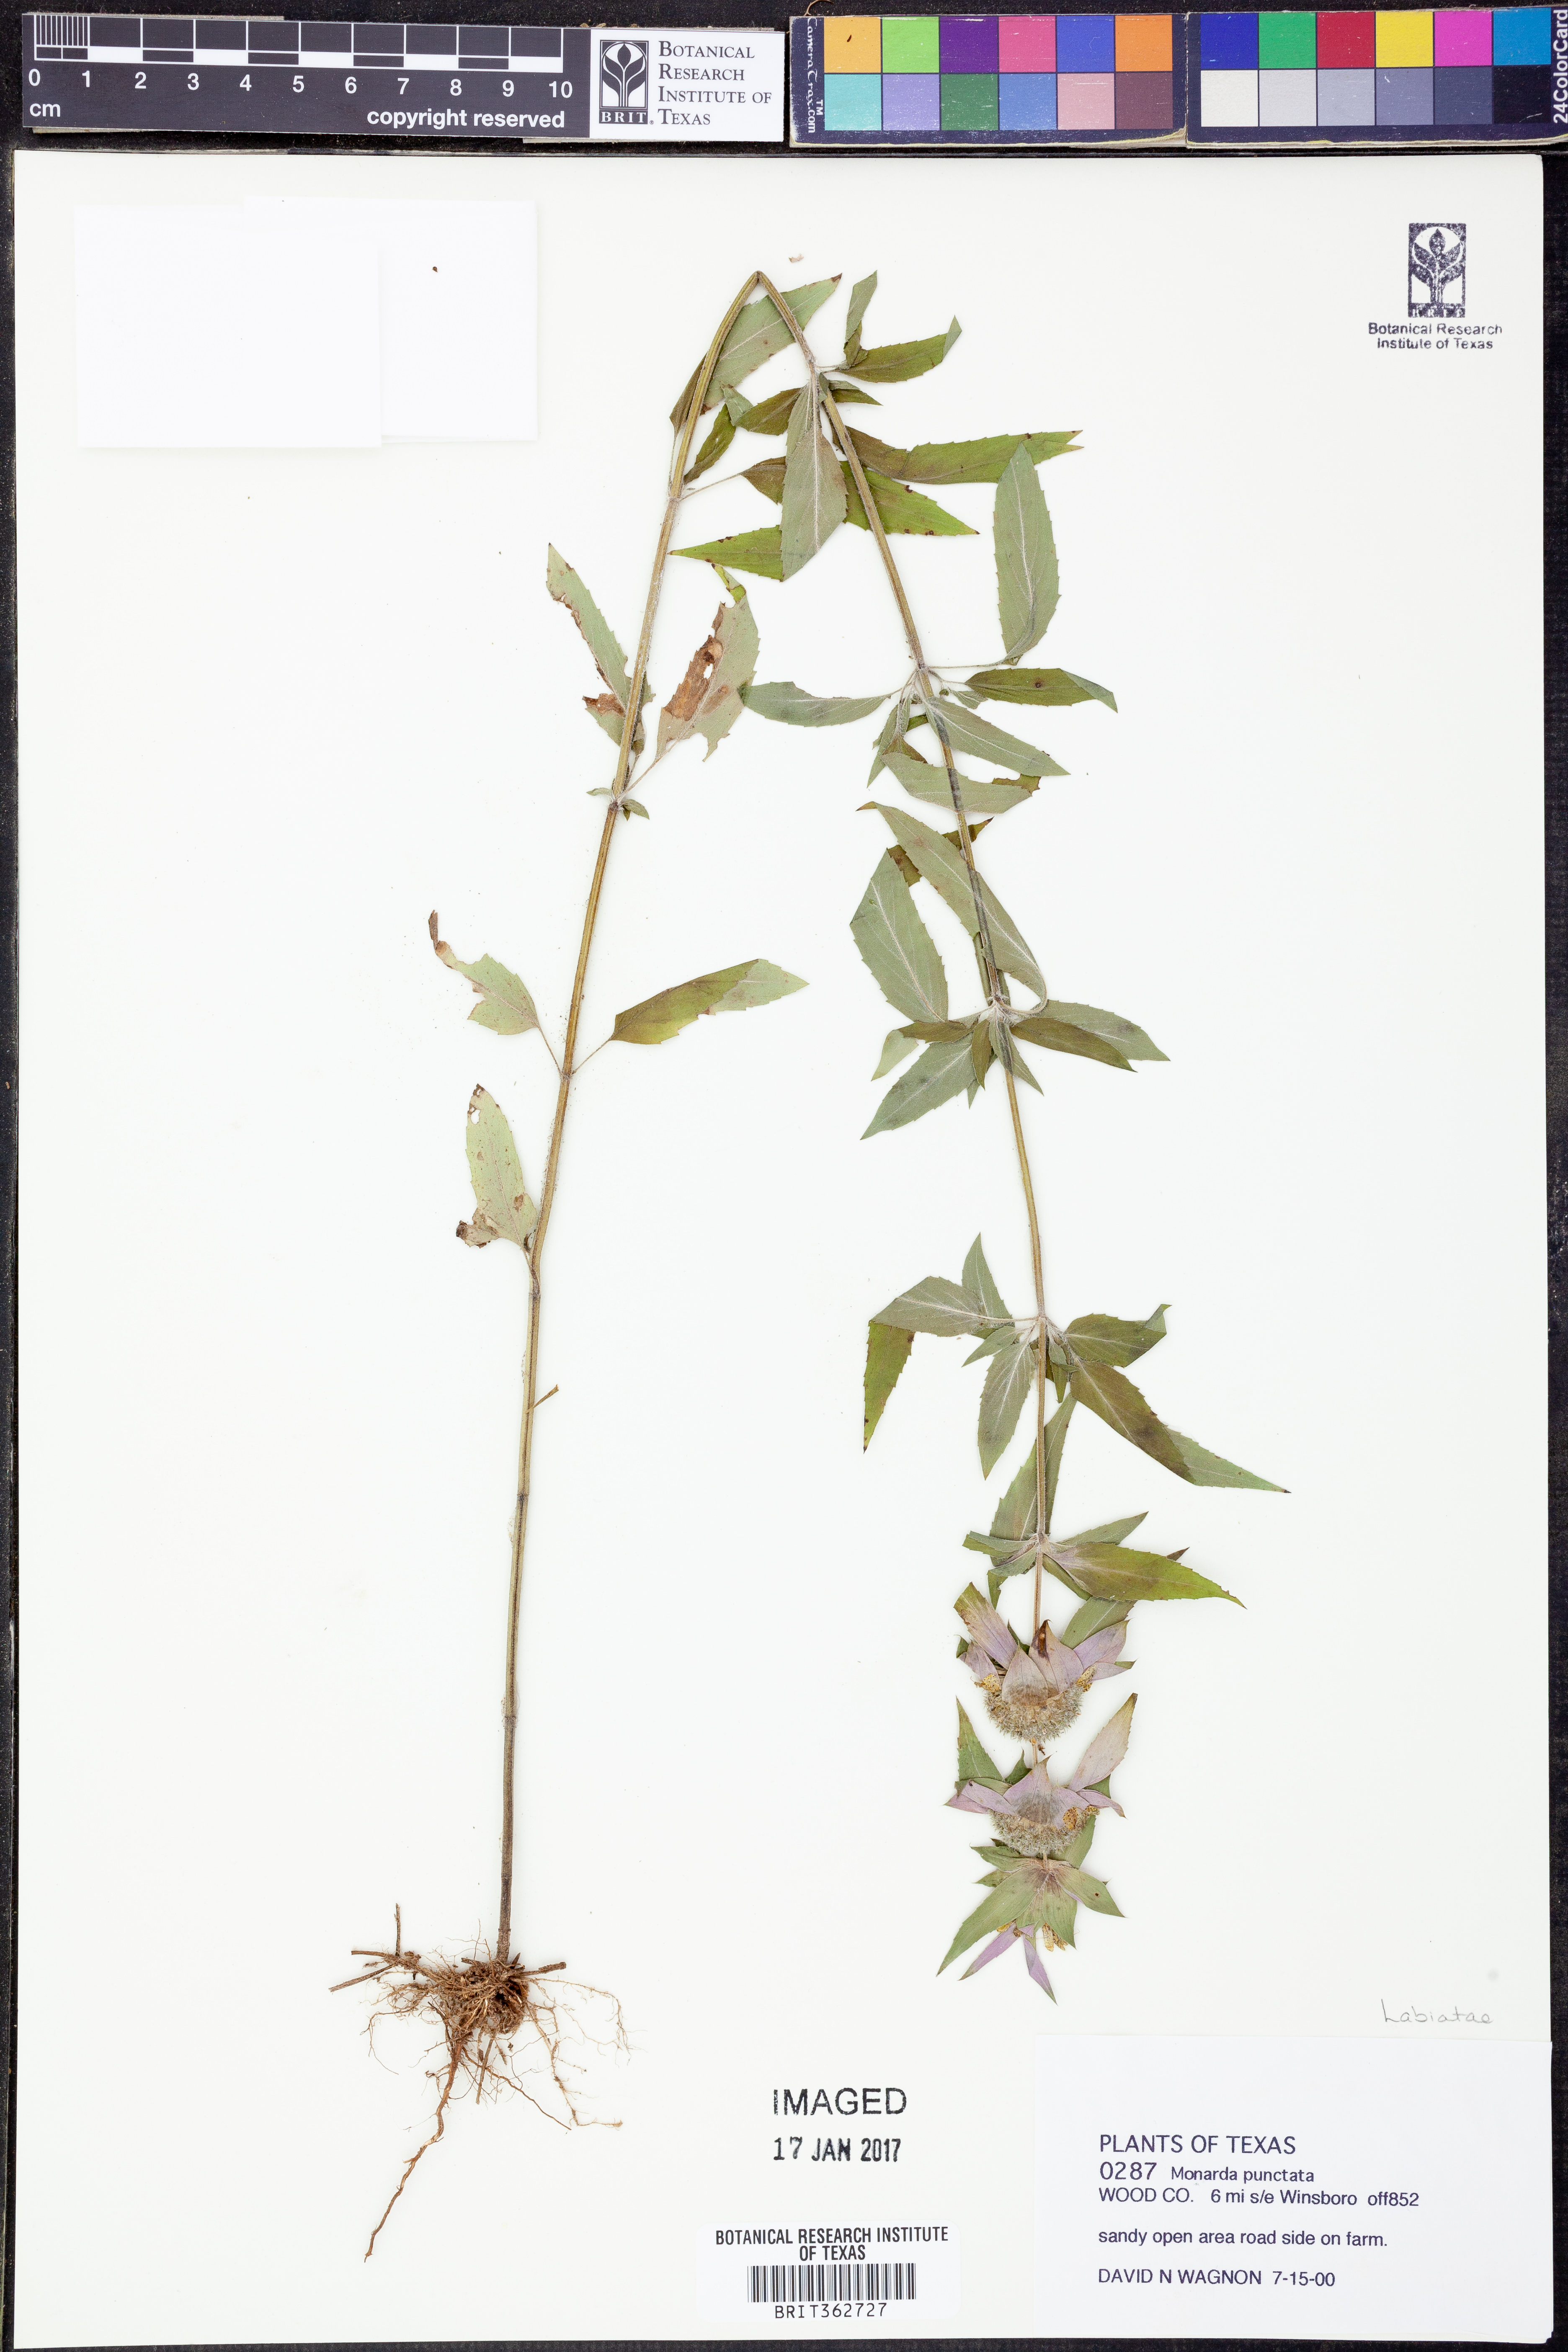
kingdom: Plantae
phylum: Tracheophyta
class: Magnoliopsida
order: Lamiales
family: Lamiaceae
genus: Monarda
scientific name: Monarda punctata
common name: Dotted monarda
